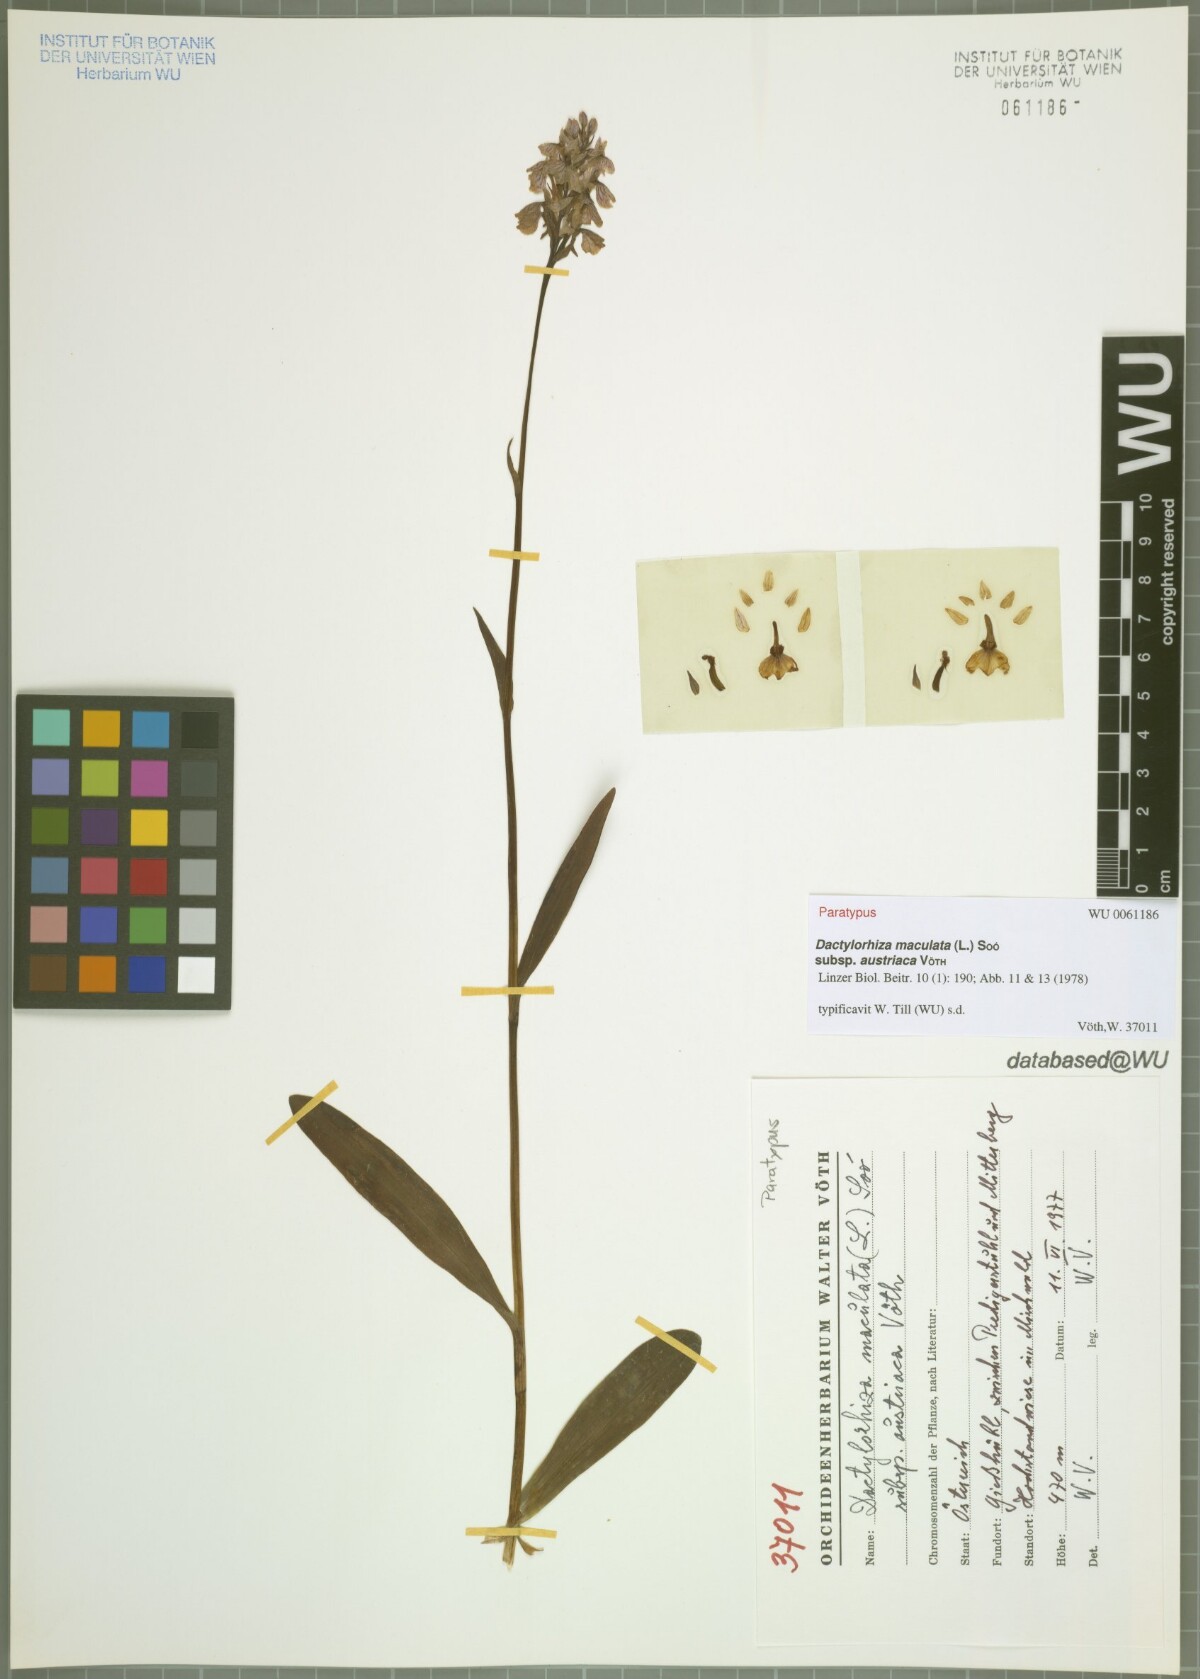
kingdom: Plantae
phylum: Tracheophyta
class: Liliopsida
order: Asparagales
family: Orchidaceae
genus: Dactylorhiza
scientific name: Dactylorhiza maculata
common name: Heath spotted-orchid
